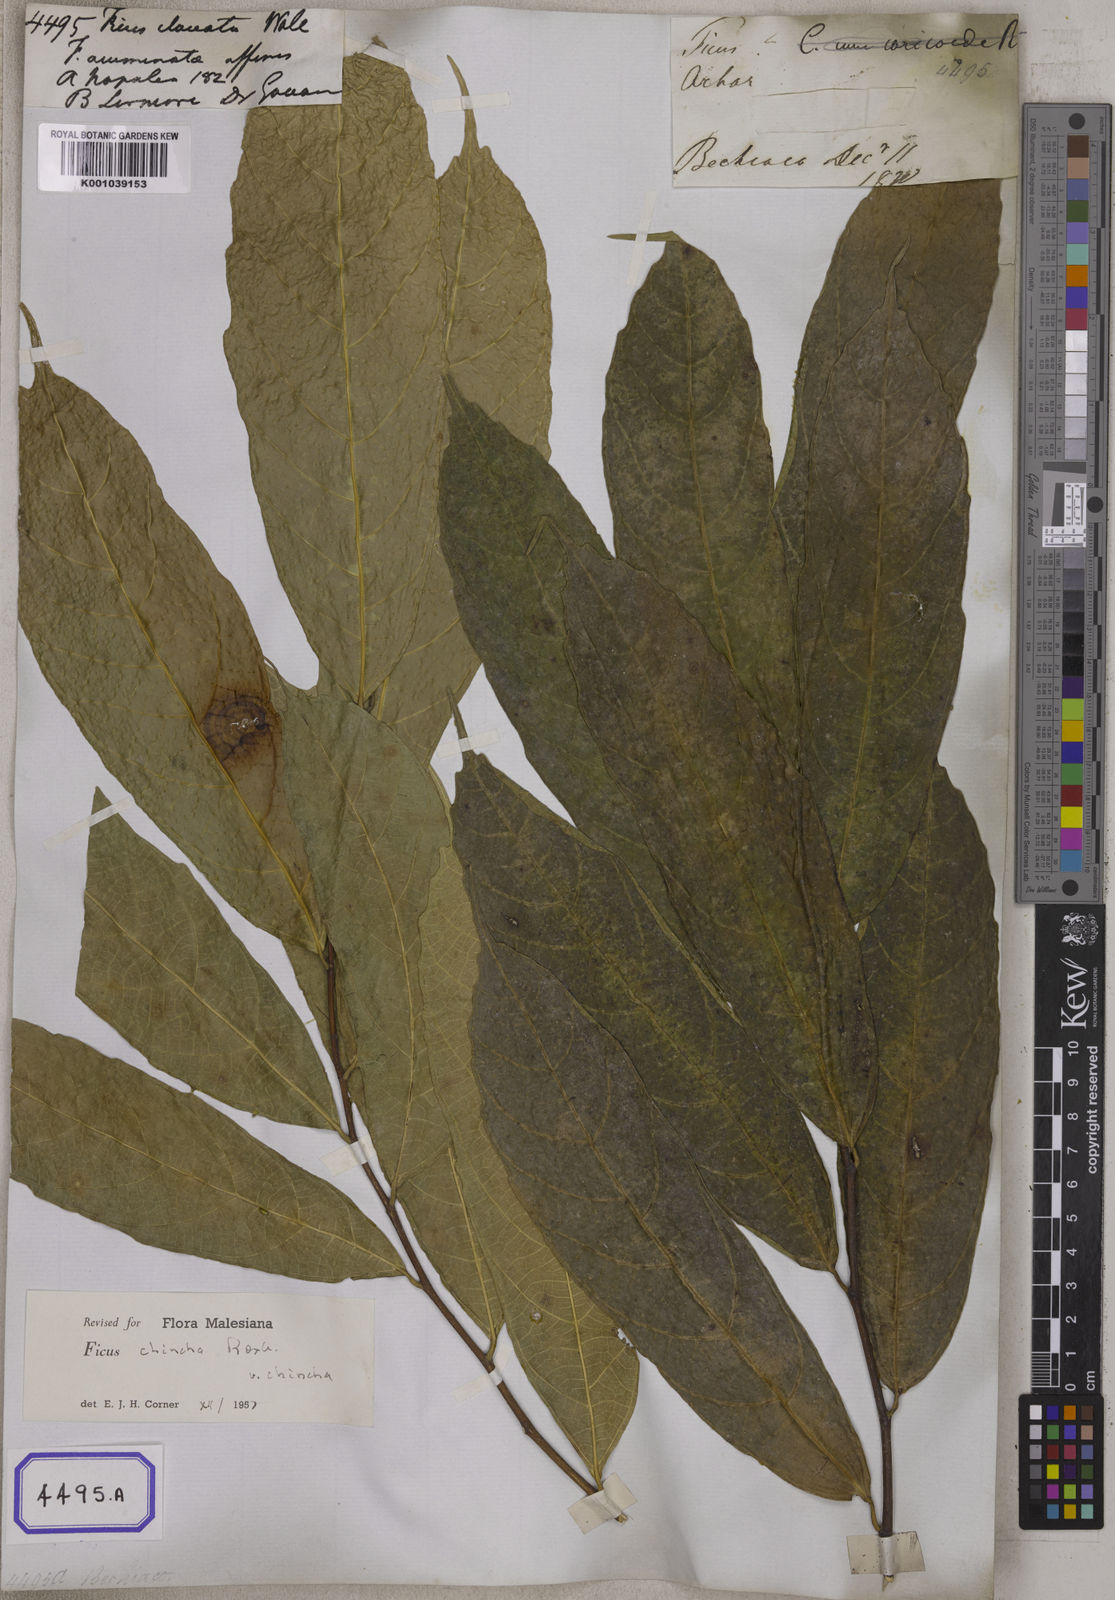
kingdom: Plantae
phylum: Tracheophyta
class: Magnoliopsida
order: Rosales
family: Moraceae
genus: Ficus
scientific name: Ficus
